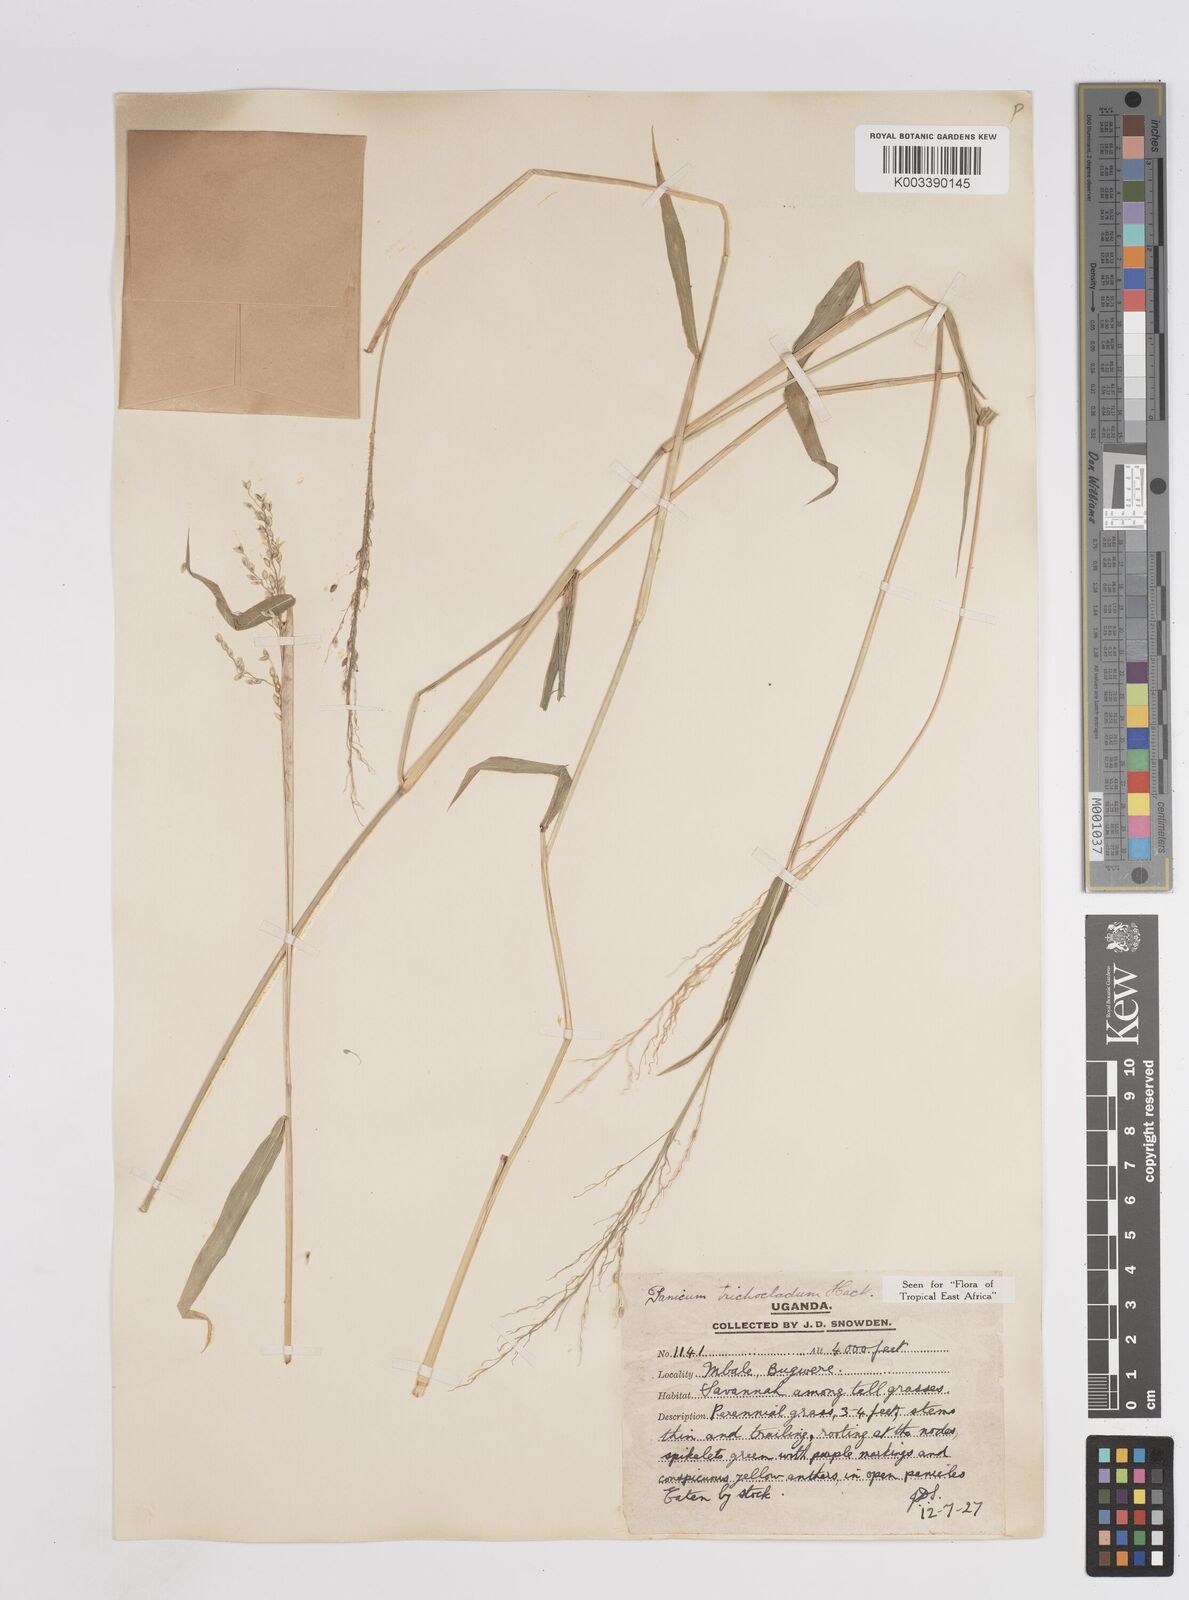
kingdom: Plantae
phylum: Tracheophyta
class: Liliopsida
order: Poales
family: Poaceae
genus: Megathyrsus
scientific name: Megathyrsus maximus
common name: Guineagrass
